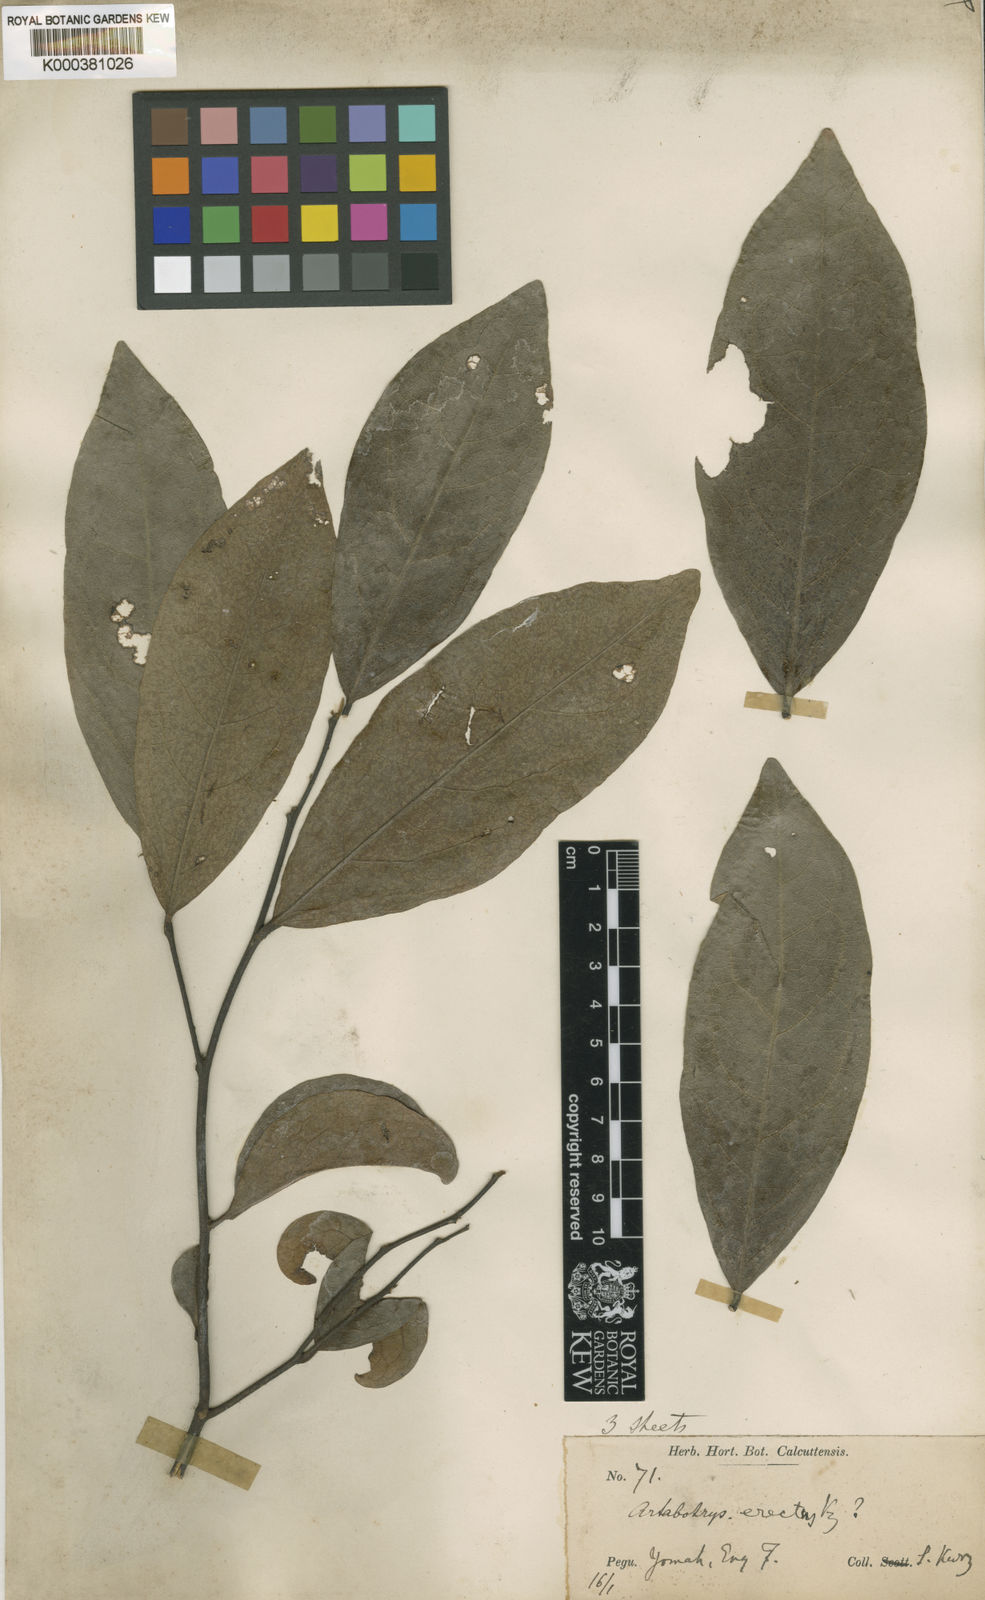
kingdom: Plantae
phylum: Tracheophyta
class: Magnoliopsida
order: Magnoliales
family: Annonaceae
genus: Artabotrys
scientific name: Artabotrys kurzii
